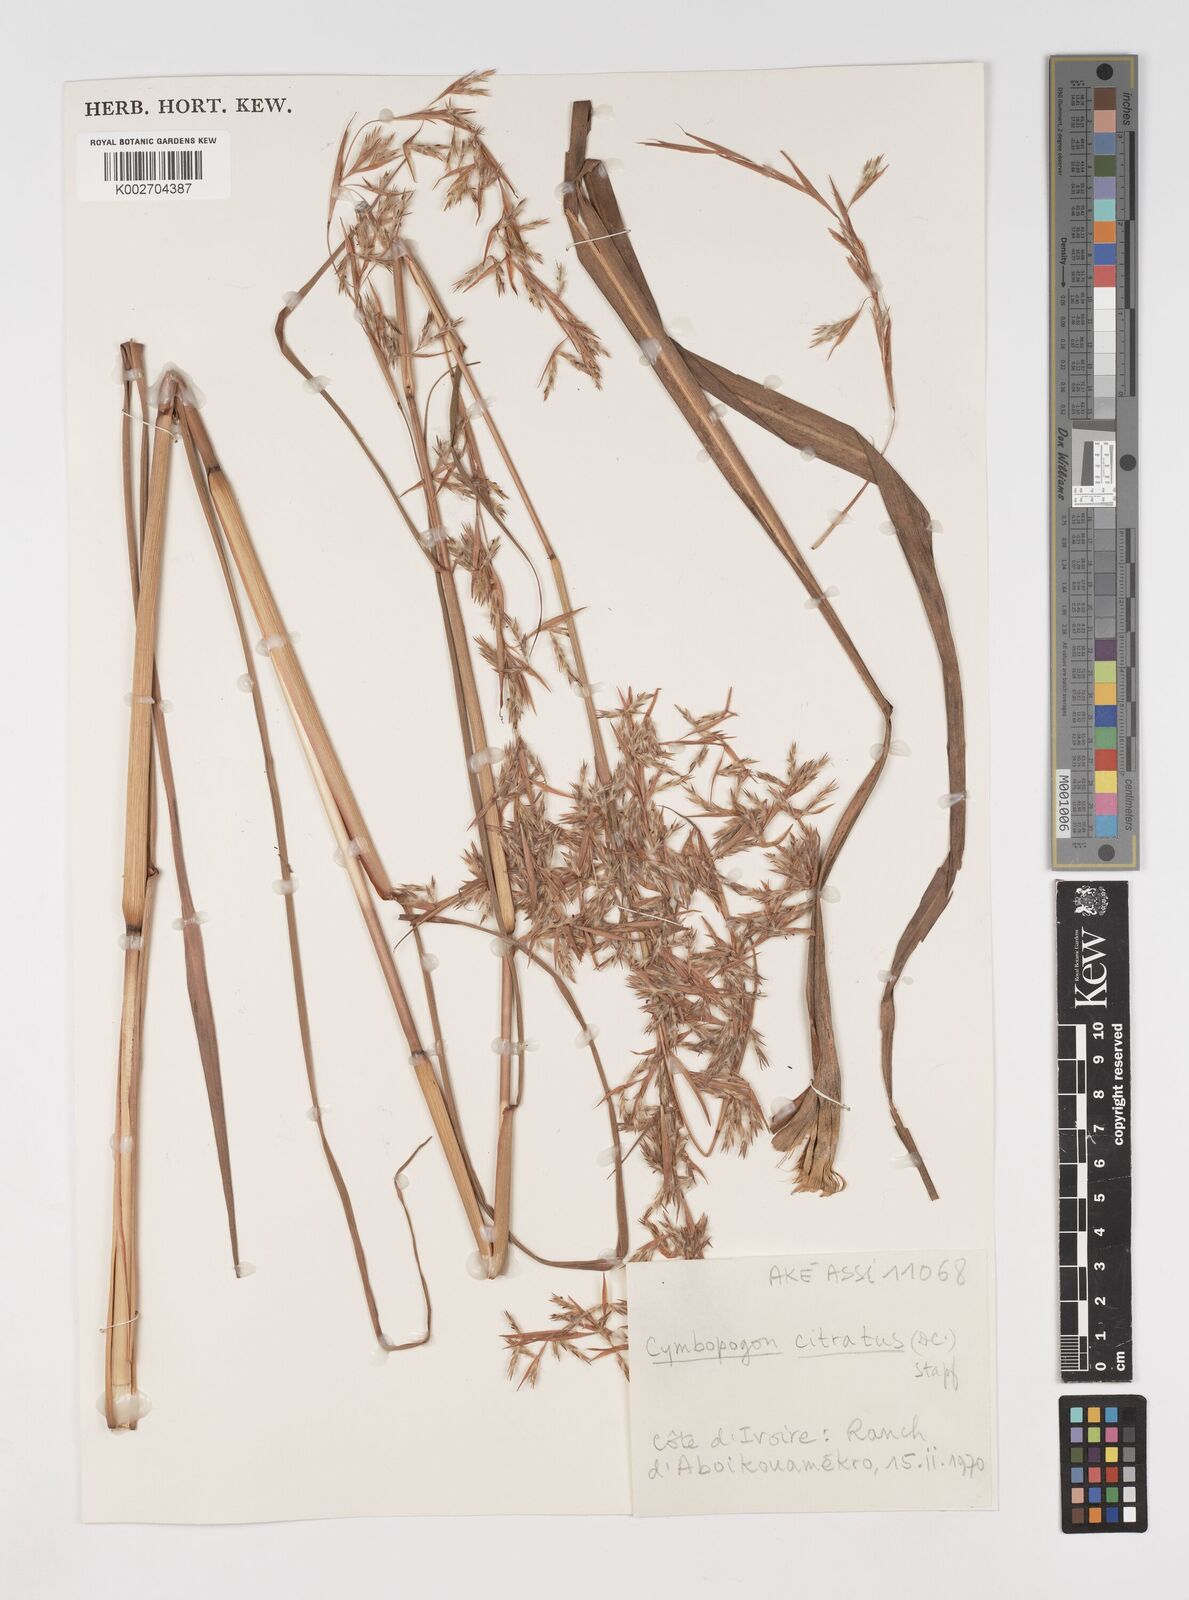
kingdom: Plantae
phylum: Tracheophyta
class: Liliopsida
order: Poales
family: Poaceae
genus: Cymbopogon
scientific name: Cymbopogon citratus
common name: Lemon grass
